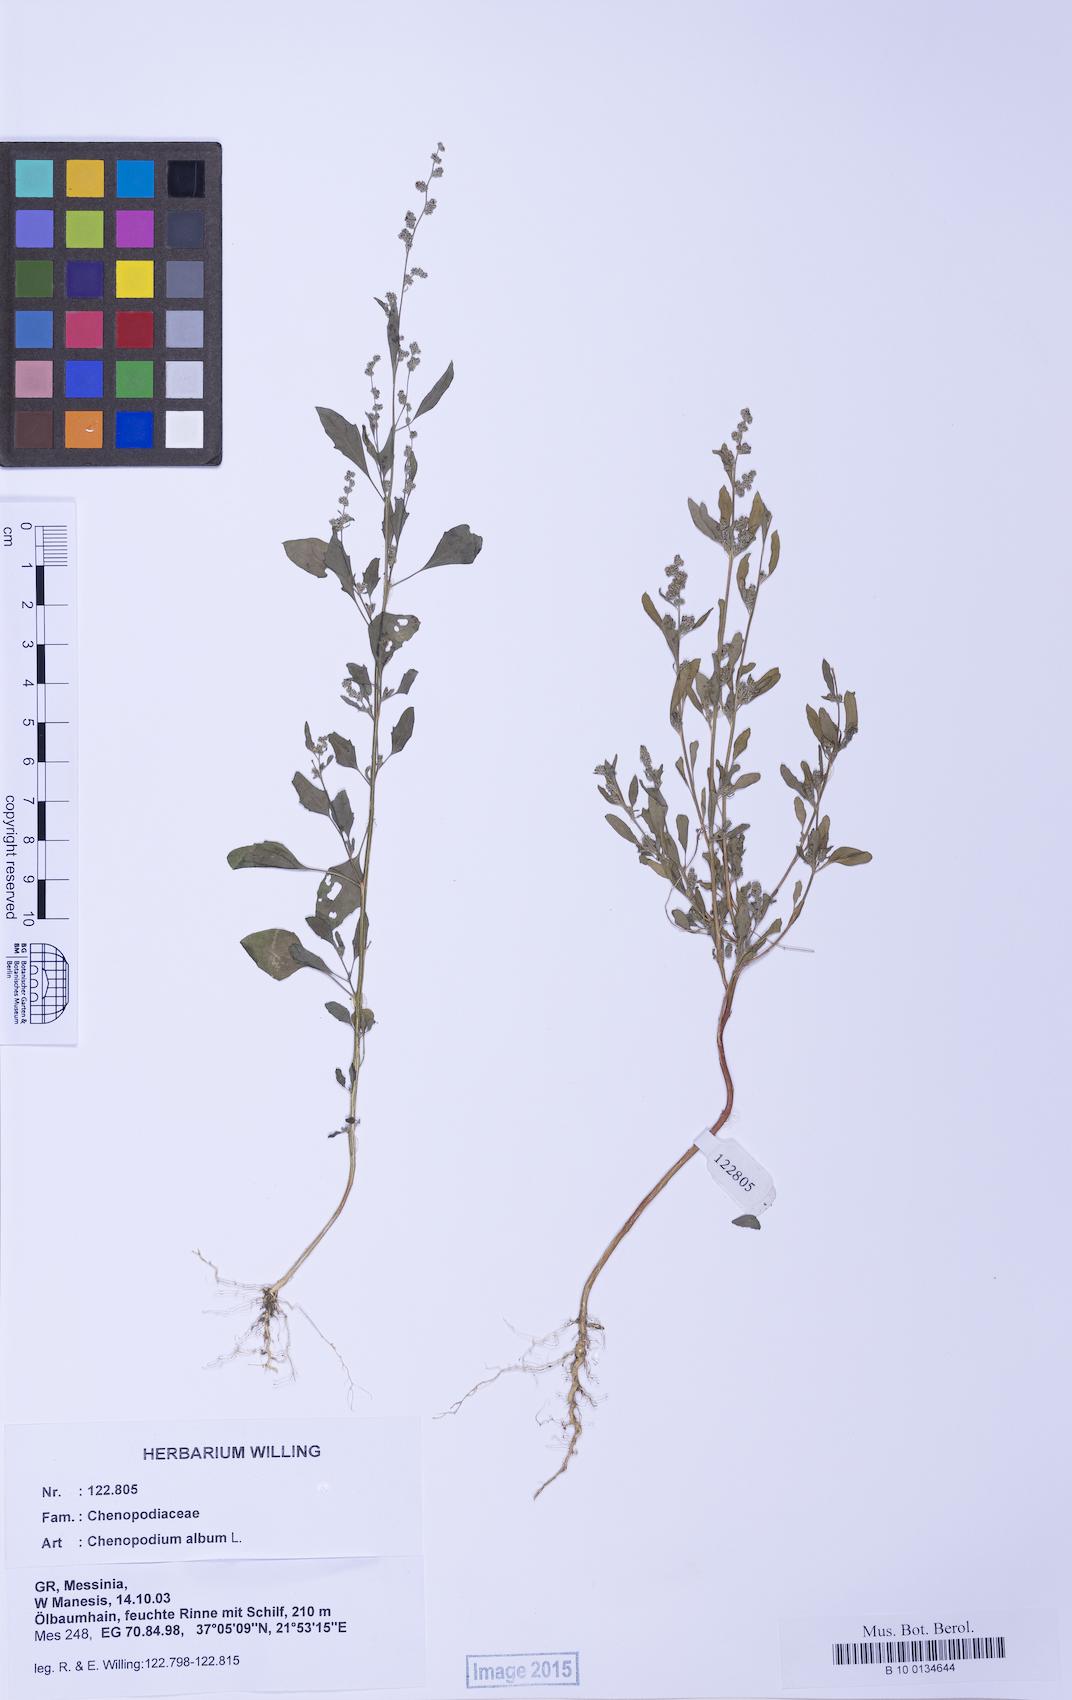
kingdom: Plantae
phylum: Tracheophyta
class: Magnoliopsida
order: Caryophyllales
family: Amaranthaceae
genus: Chenopodium
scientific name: Chenopodium striatiforme
